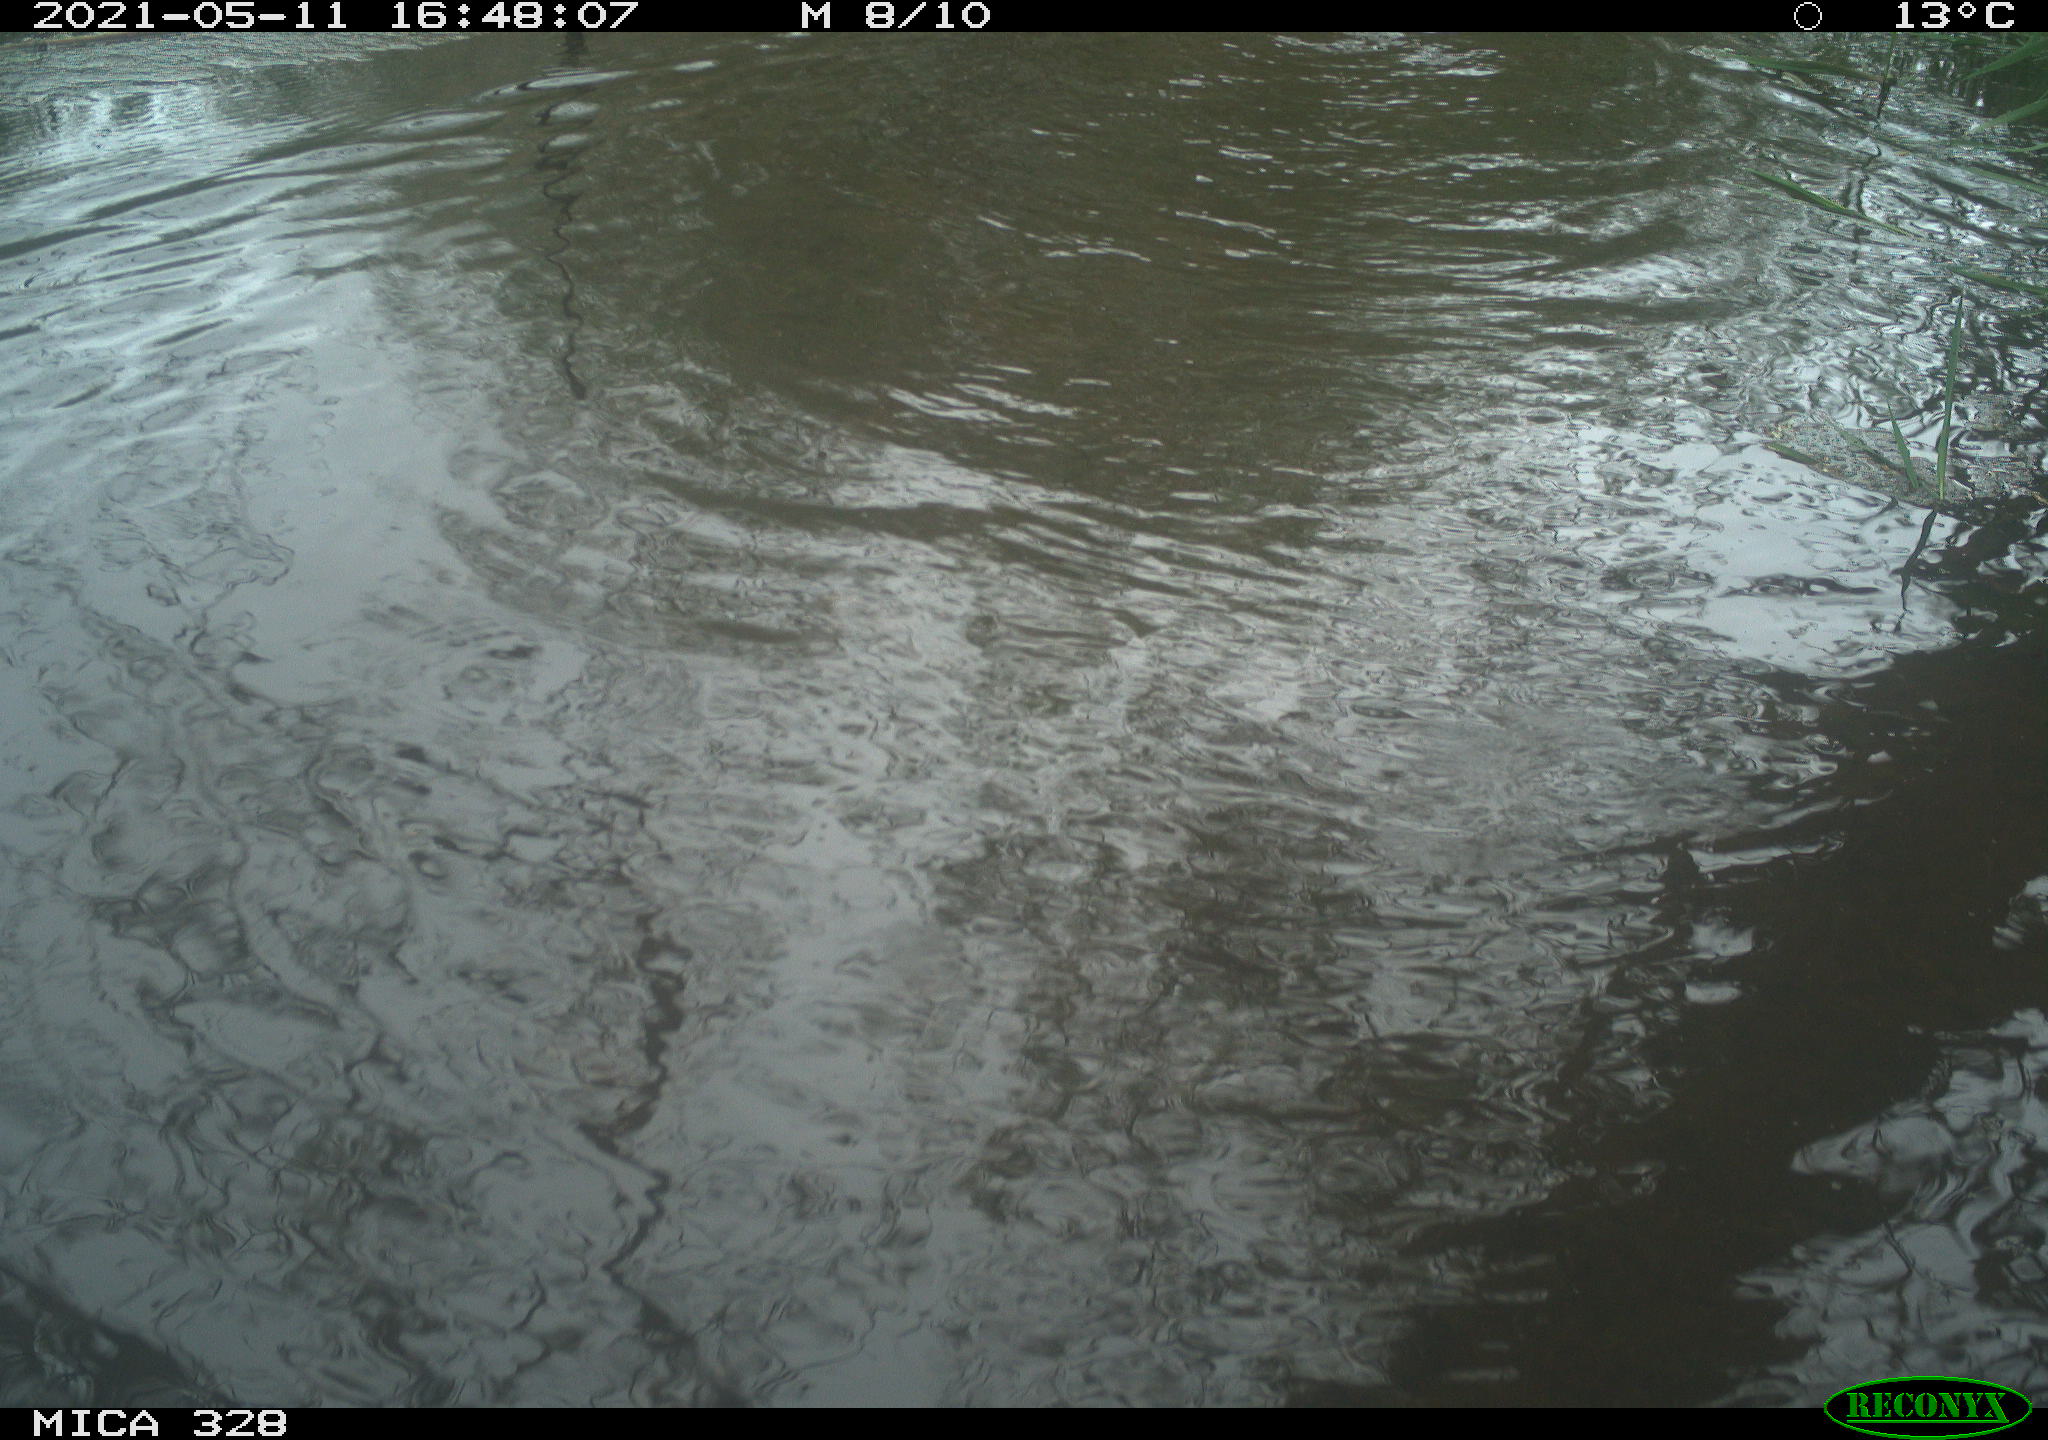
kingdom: Animalia
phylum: Chordata
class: Mammalia
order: Rodentia
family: Cricetidae
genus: Ondatra
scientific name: Ondatra zibethicus
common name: Muskrat
